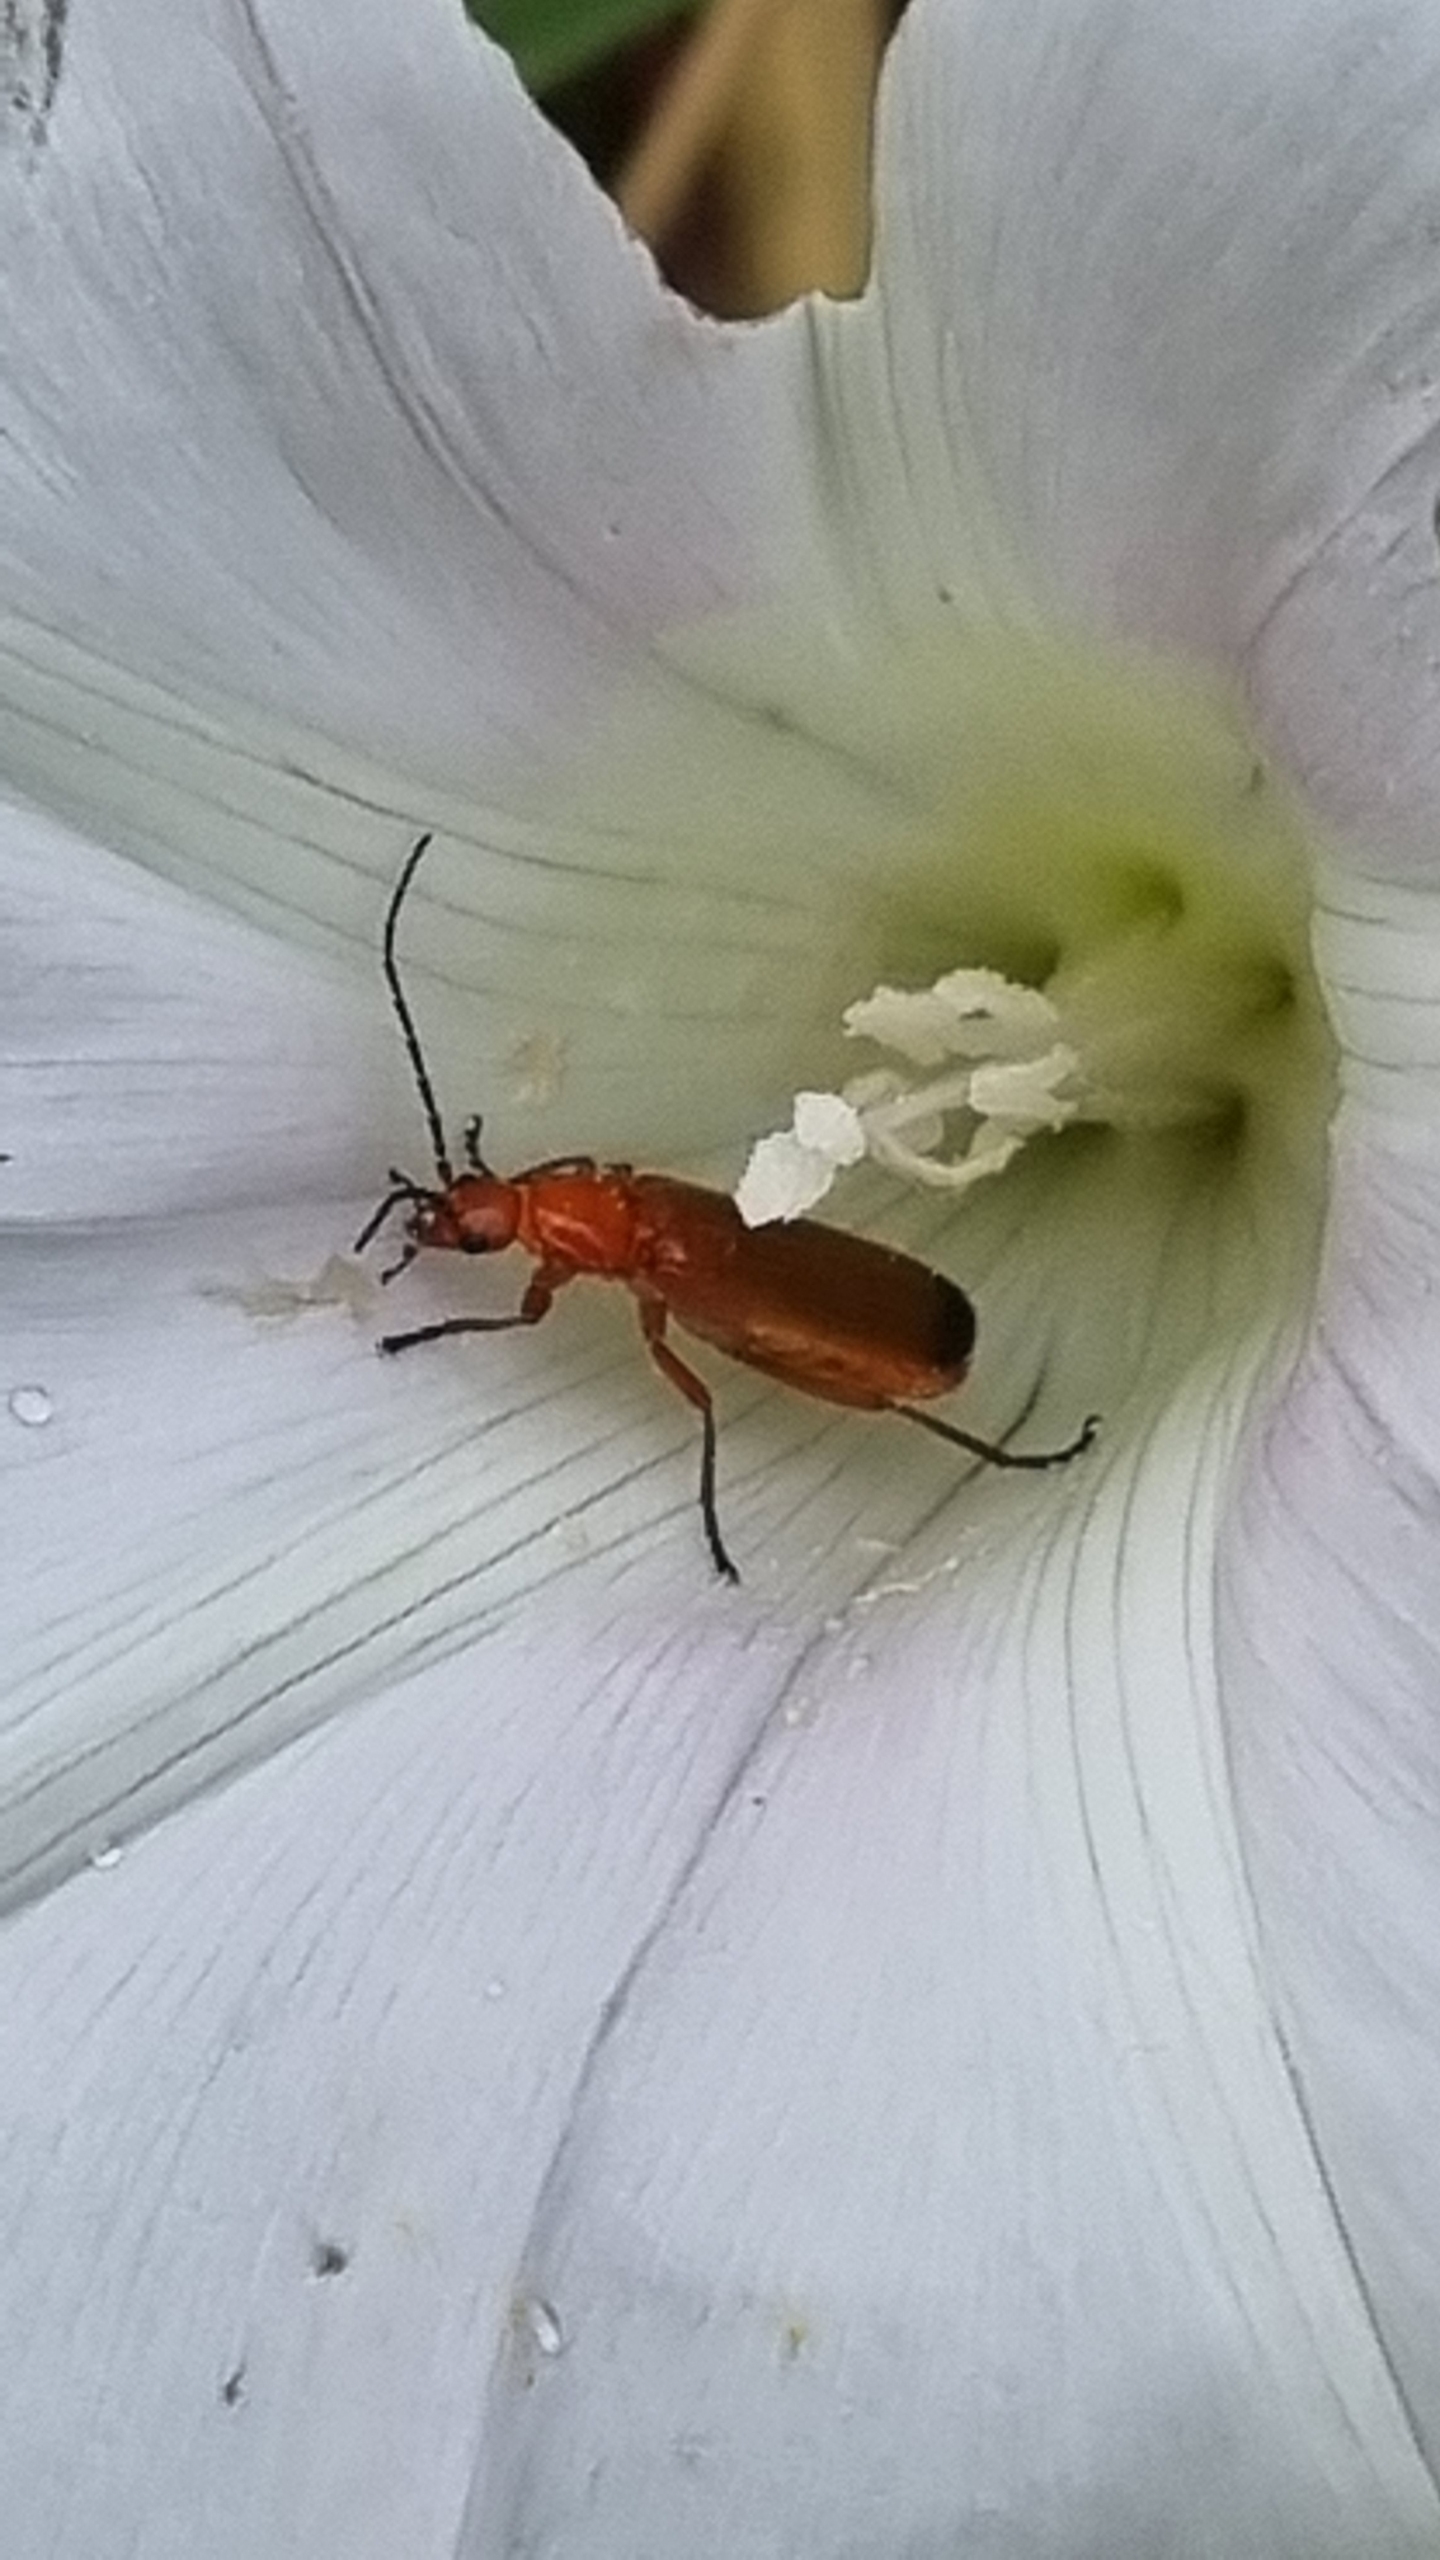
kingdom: Animalia
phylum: Arthropoda
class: Insecta
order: Coleoptera
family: Cantharidae
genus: Rhagonycha
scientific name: Rhagonycha fulva
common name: Præstebille
